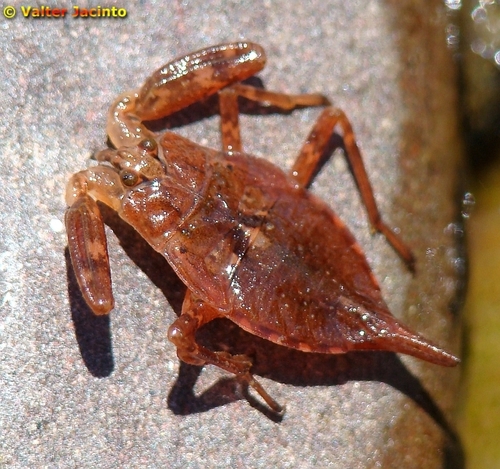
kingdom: Animalia
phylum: Arthropoda
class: Insecta
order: Hemiptera
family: Nepidae
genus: Nepa
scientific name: Nepa cinerea
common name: Water scorpion
